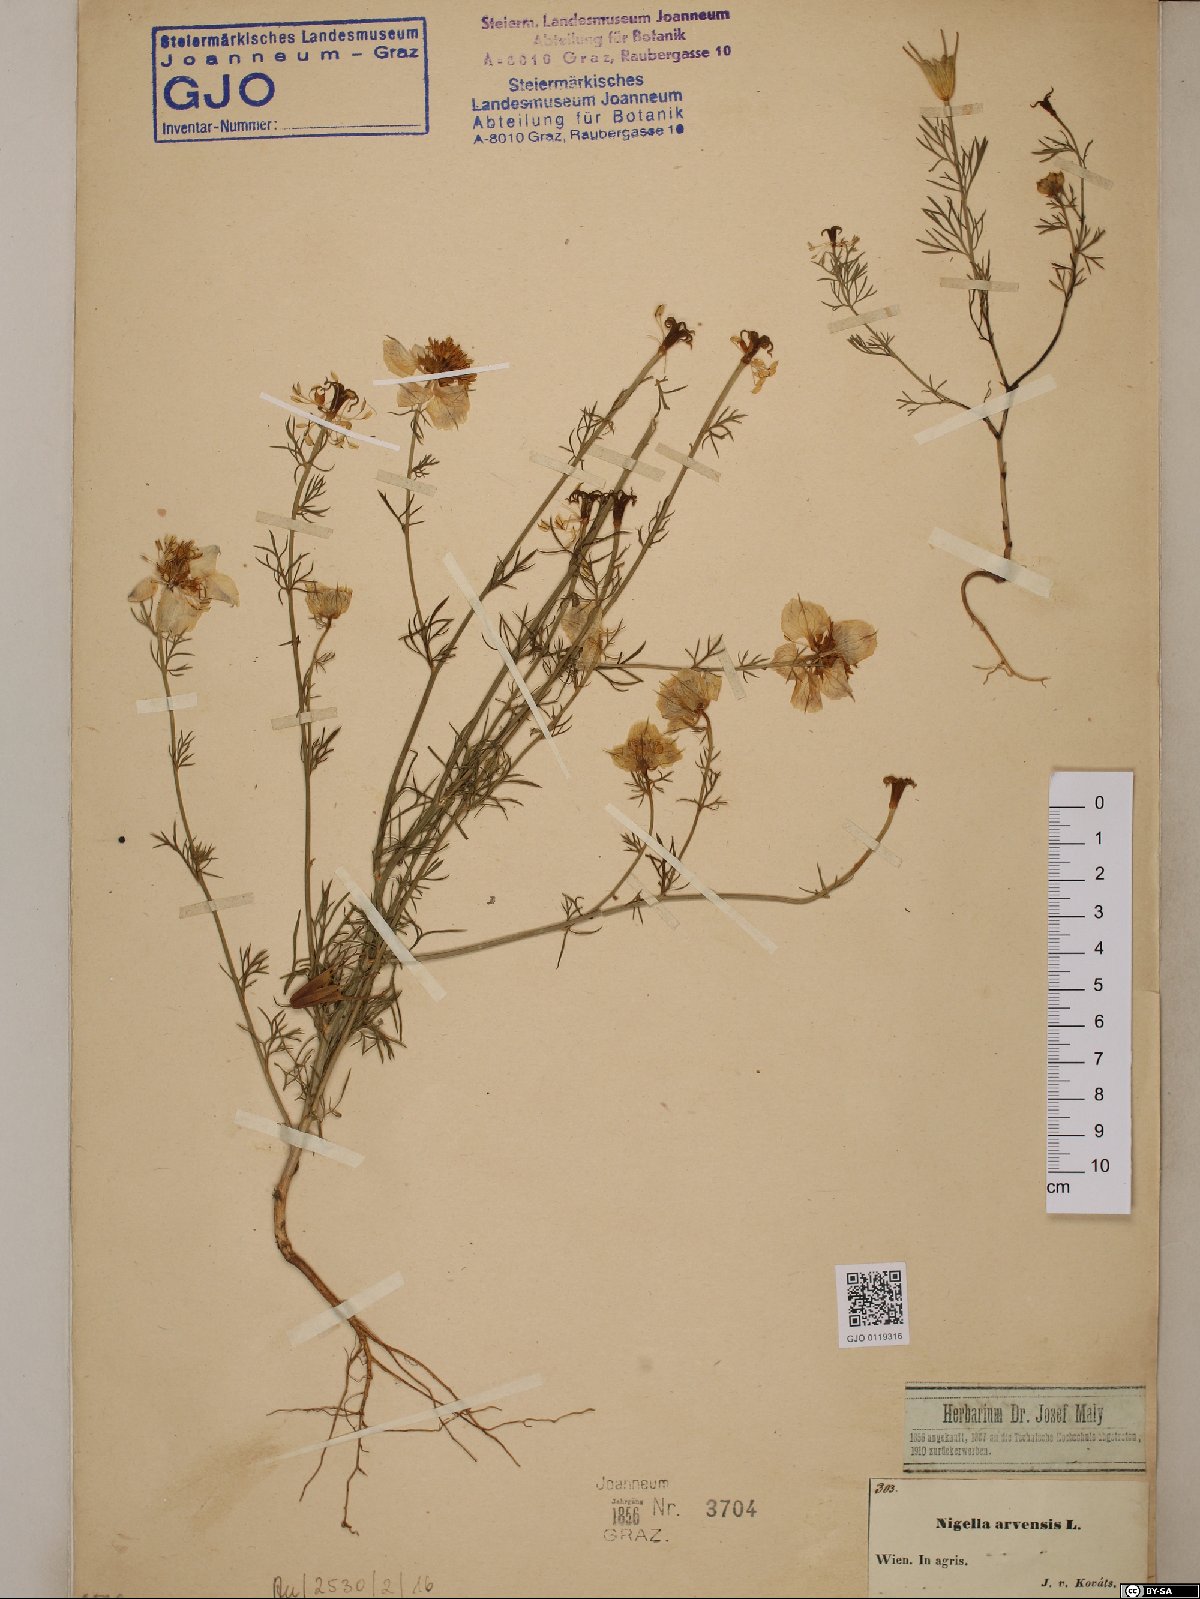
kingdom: Plantae
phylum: Tracheophyta
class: Magnoliopsida
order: Ranunculales
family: Ranunculaceae
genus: Nigella
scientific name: Nigella arvensis
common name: Wild fennel-flower
